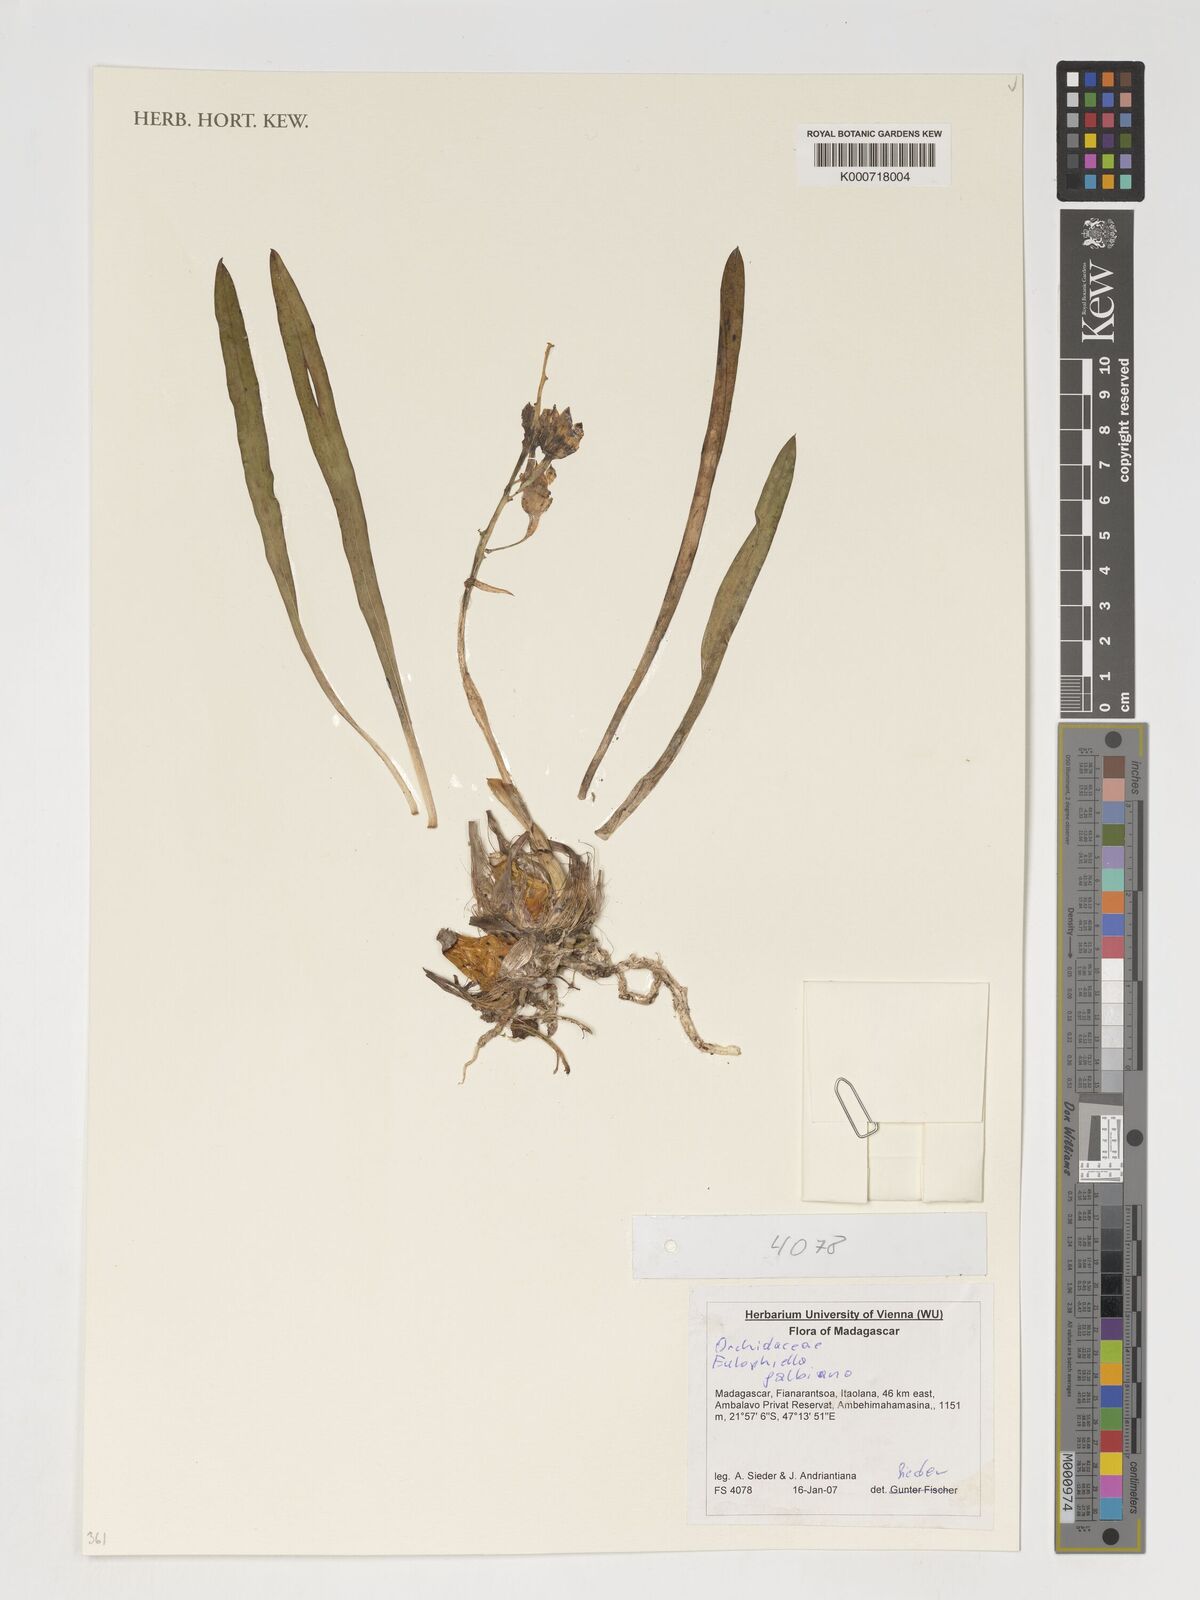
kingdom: Plantae
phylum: Tracheophyta
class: Liliopsida
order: Asparagales
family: Orchidaceae
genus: Eulophia
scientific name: Eulophia galbana
